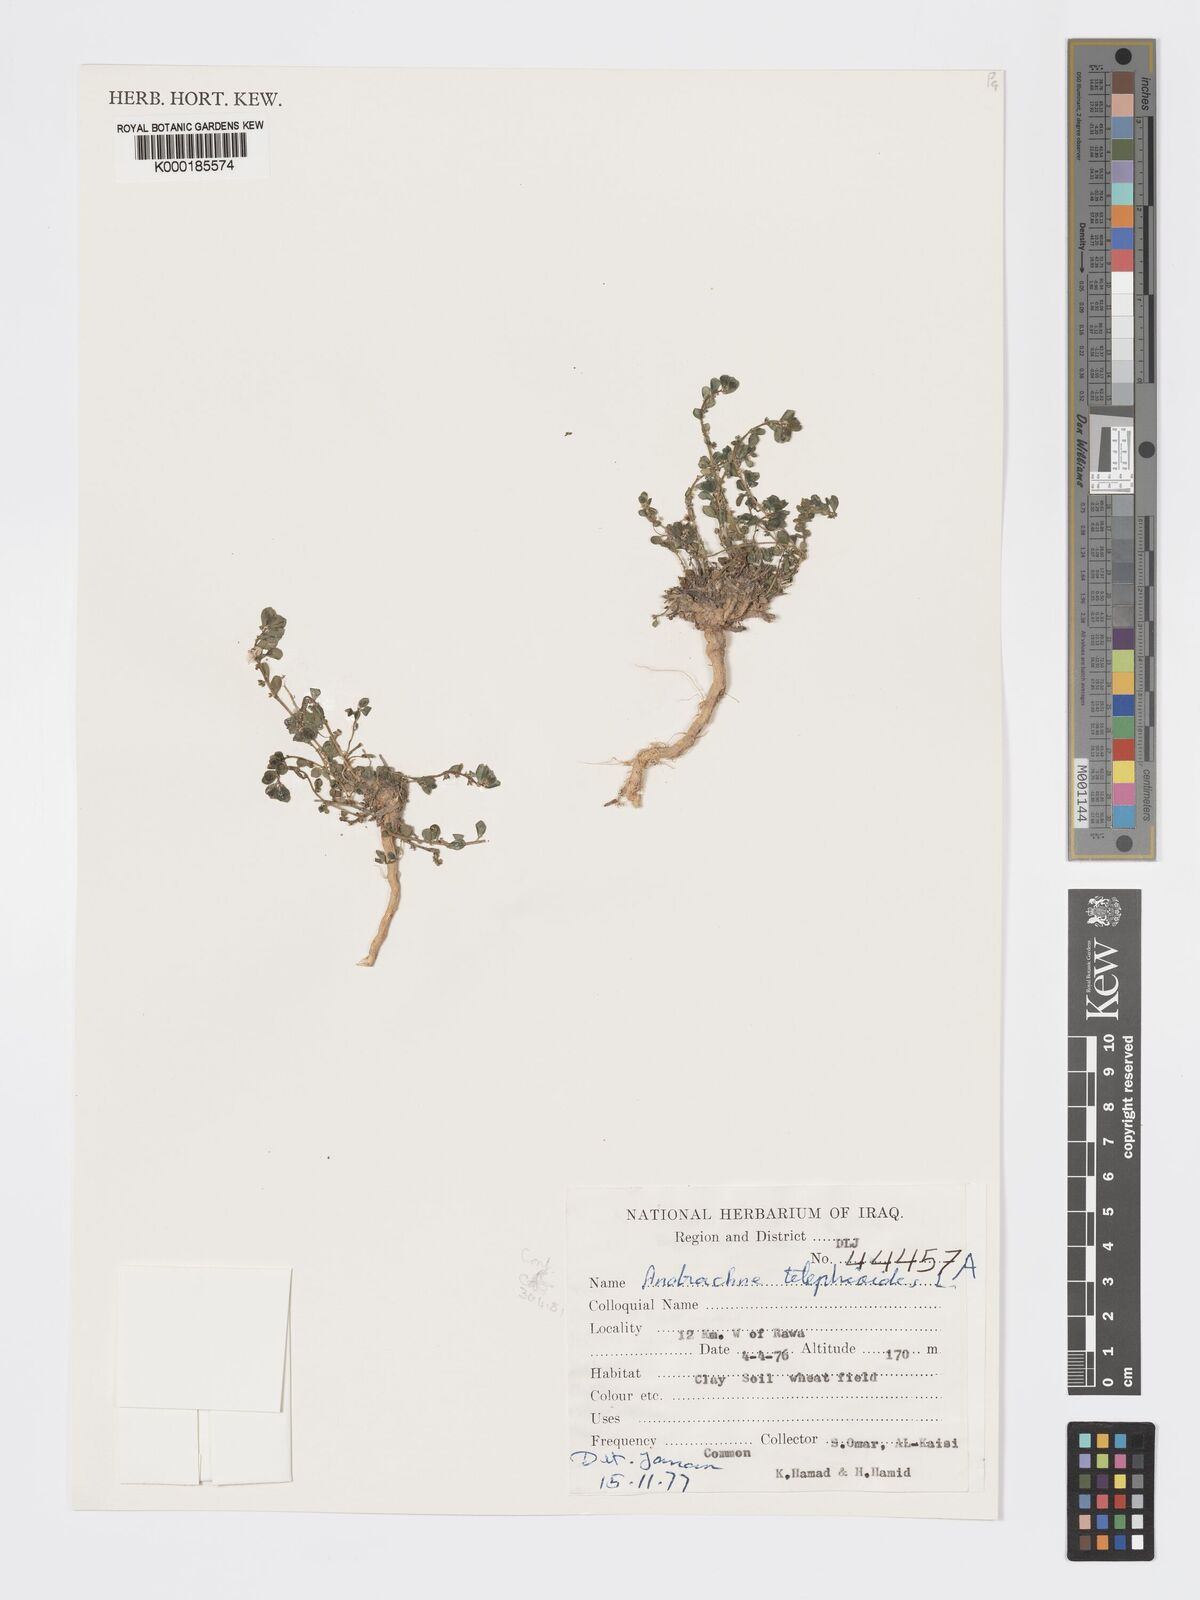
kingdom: Plantae
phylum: Tracheophyta
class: Magnoliopsida
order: Malpighiales
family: Phyllanthaceae
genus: Andrachne
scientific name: Andrachne telephioides
